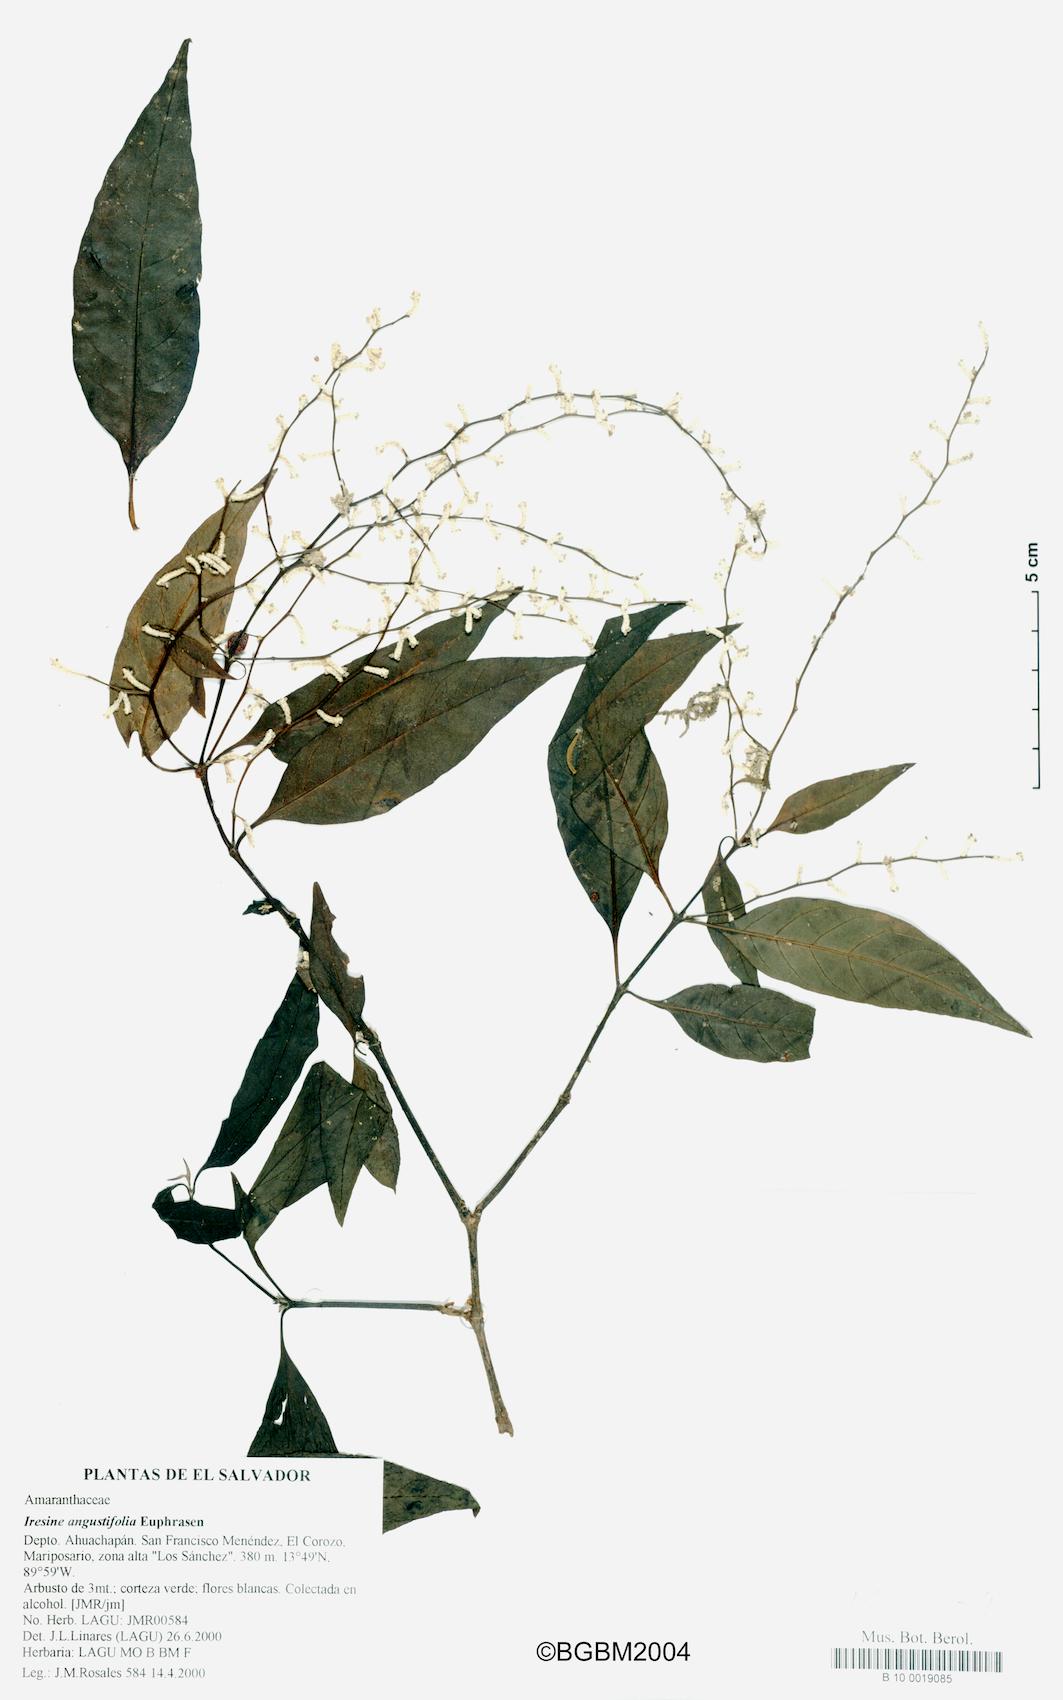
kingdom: Plantae
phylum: Tracheophyta
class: Magnoliopsida
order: Caryophyllales
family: Amaranthaceae
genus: Iresine
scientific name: Iresine angustifolia
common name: White snowplant
